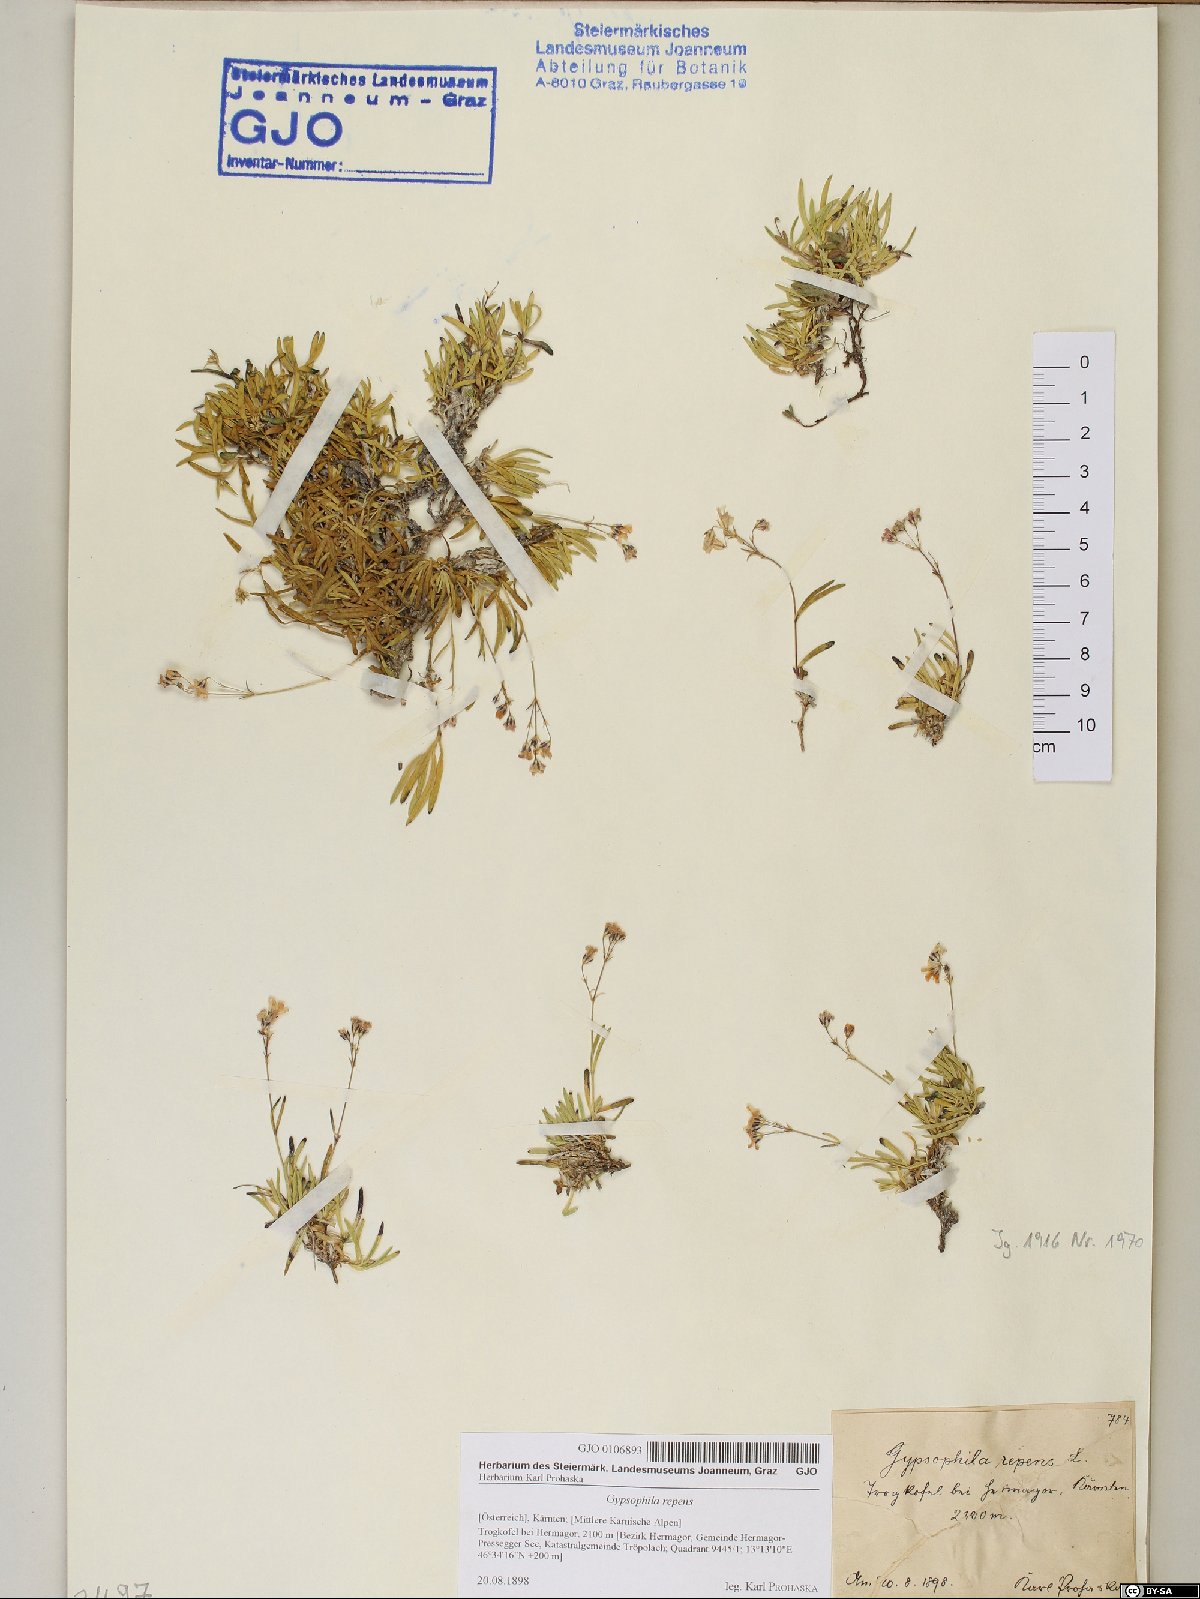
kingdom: Plantae
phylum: Tracheophyta
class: Magnoliopsida
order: Caryophyllales
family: Caryophyllaceae
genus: Gypsophila
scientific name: Gypsophila repens
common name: Creeping baby's-breath
